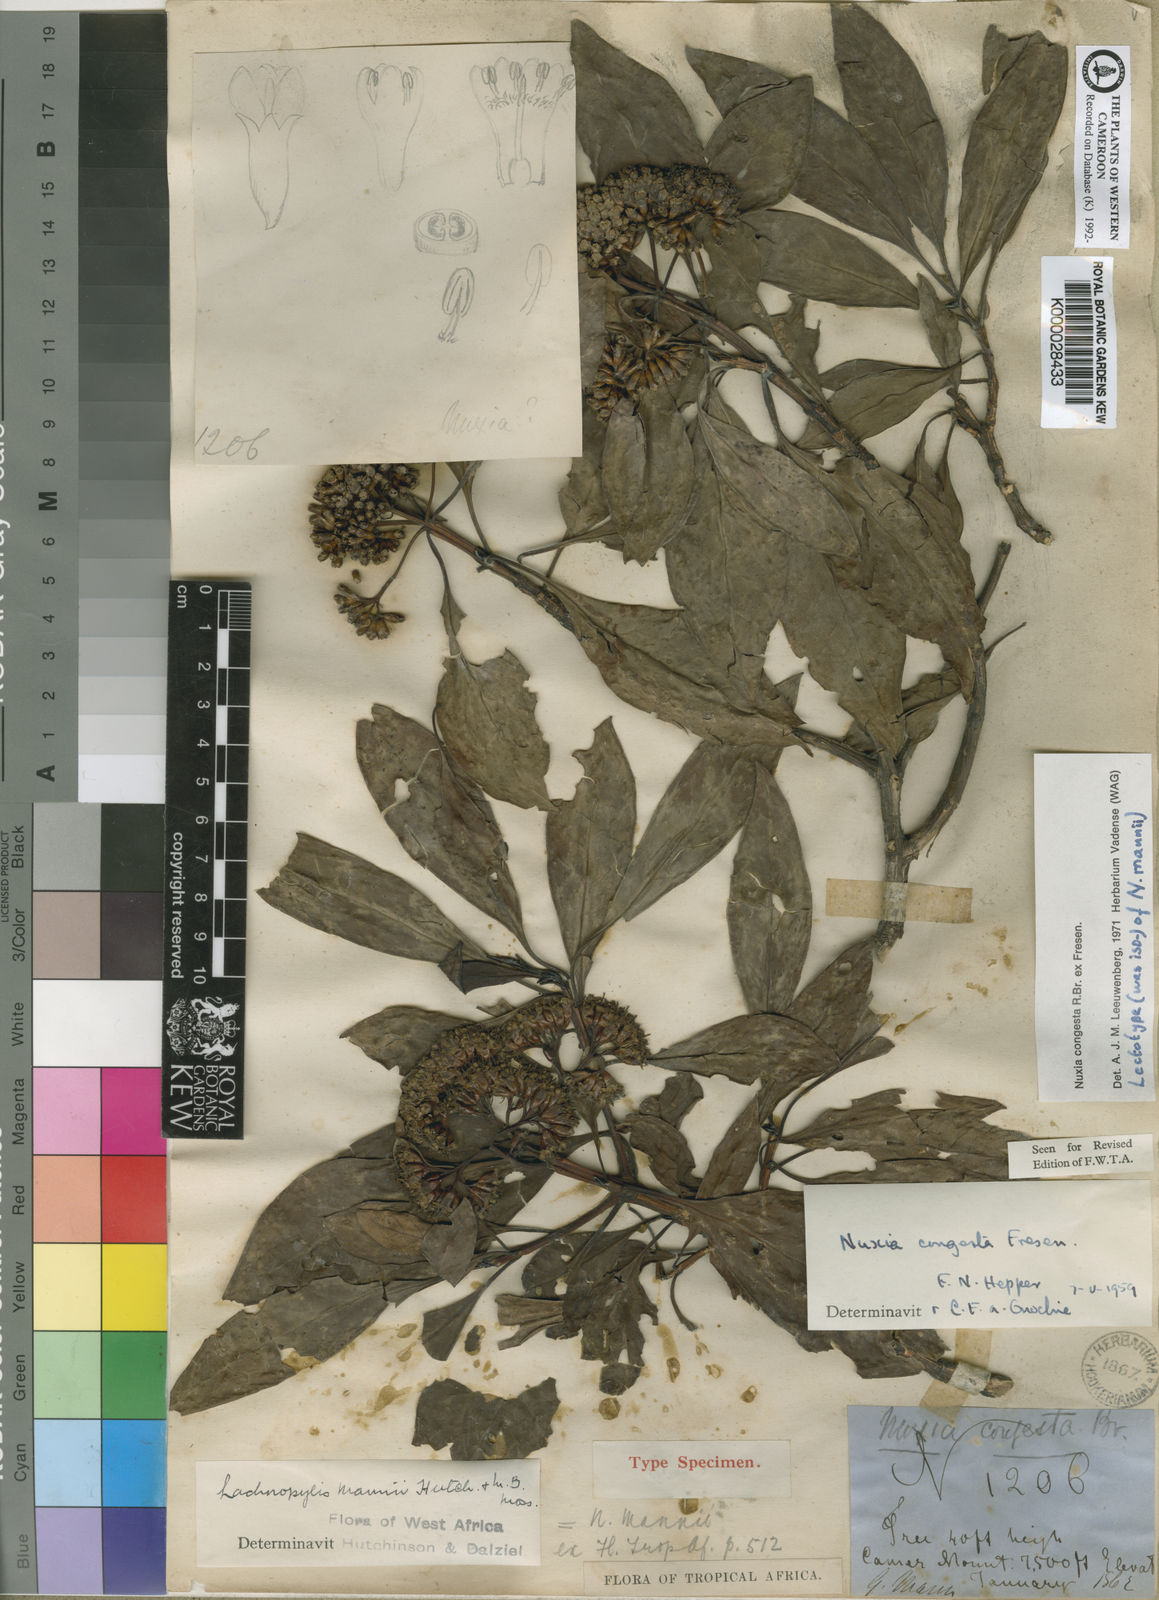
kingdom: Plantae
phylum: Tracheophyta
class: Magnoliopsida
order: Lamiales
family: Stilbaceae
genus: Nuxia
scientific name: Nuxia congesta
